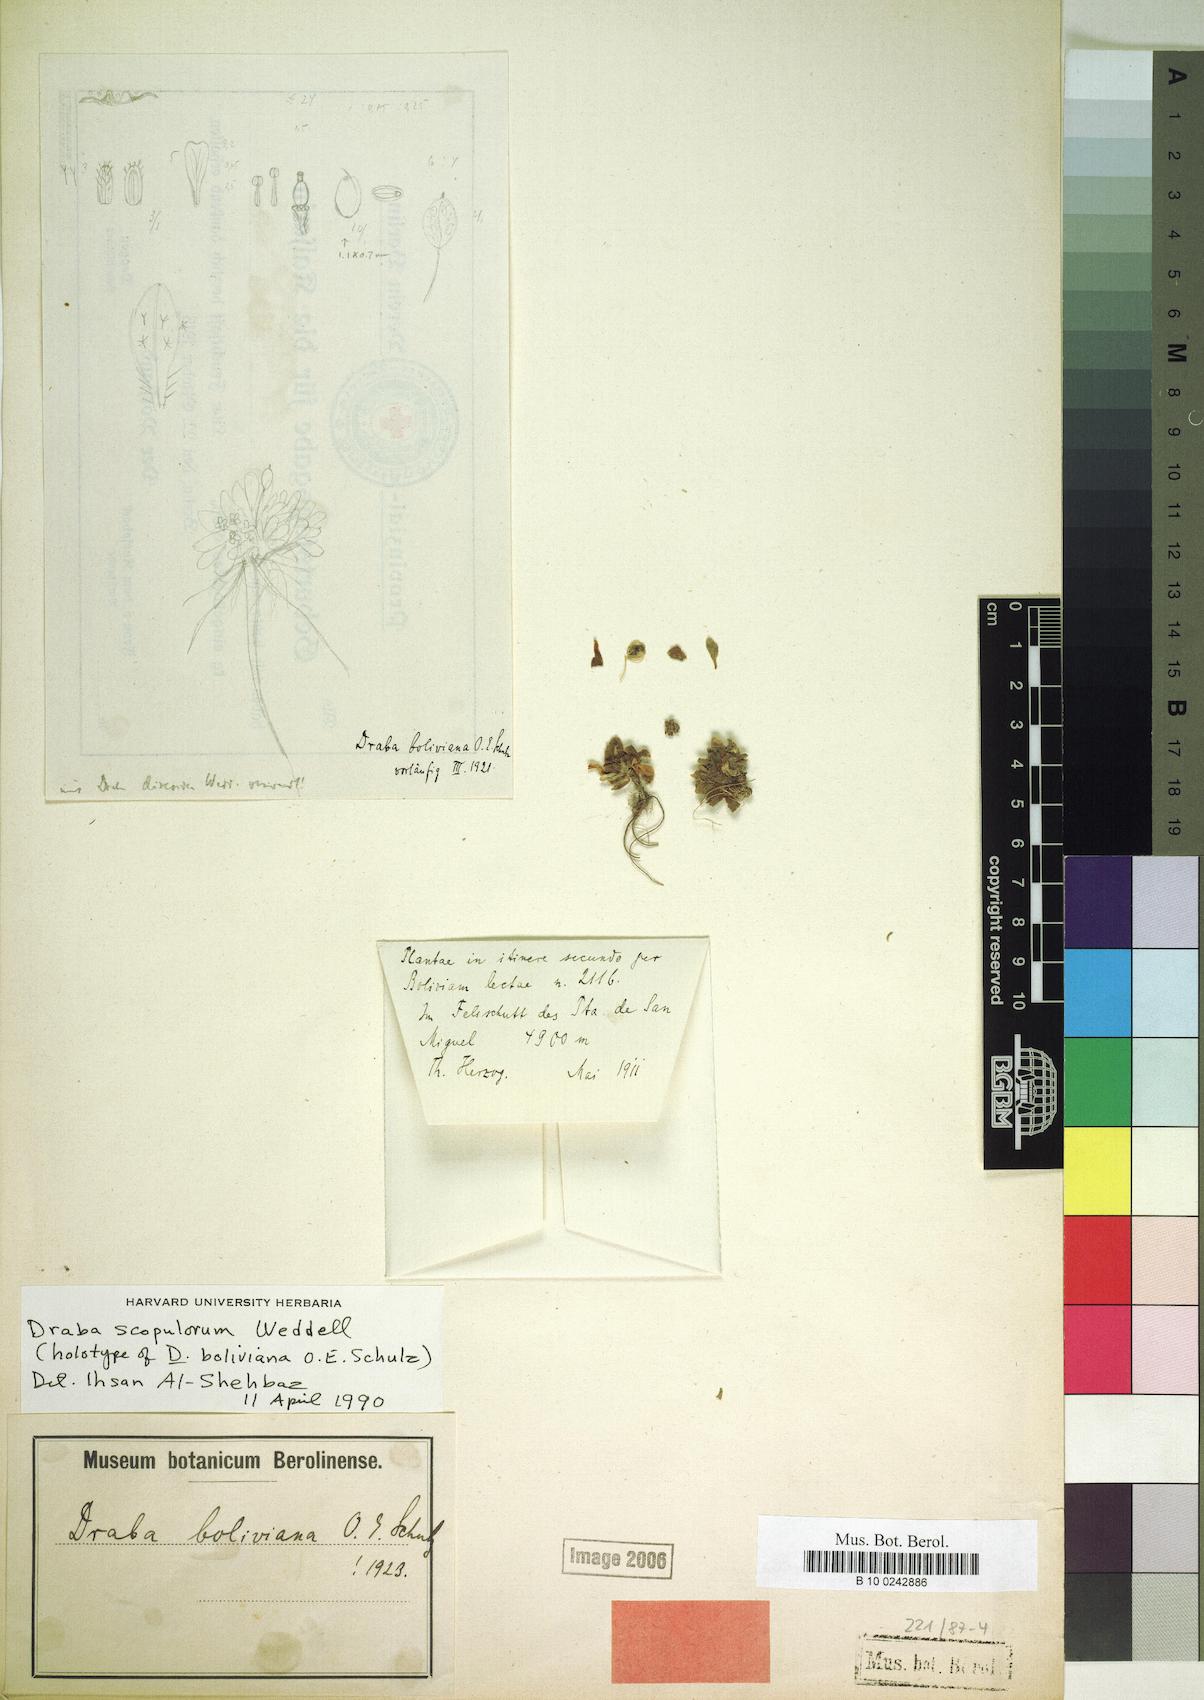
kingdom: Plantae
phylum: Tracheophyta
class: Magnoliopsida
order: Brassicales
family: Brassicaceae
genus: Draba
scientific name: Draba scopulorum
